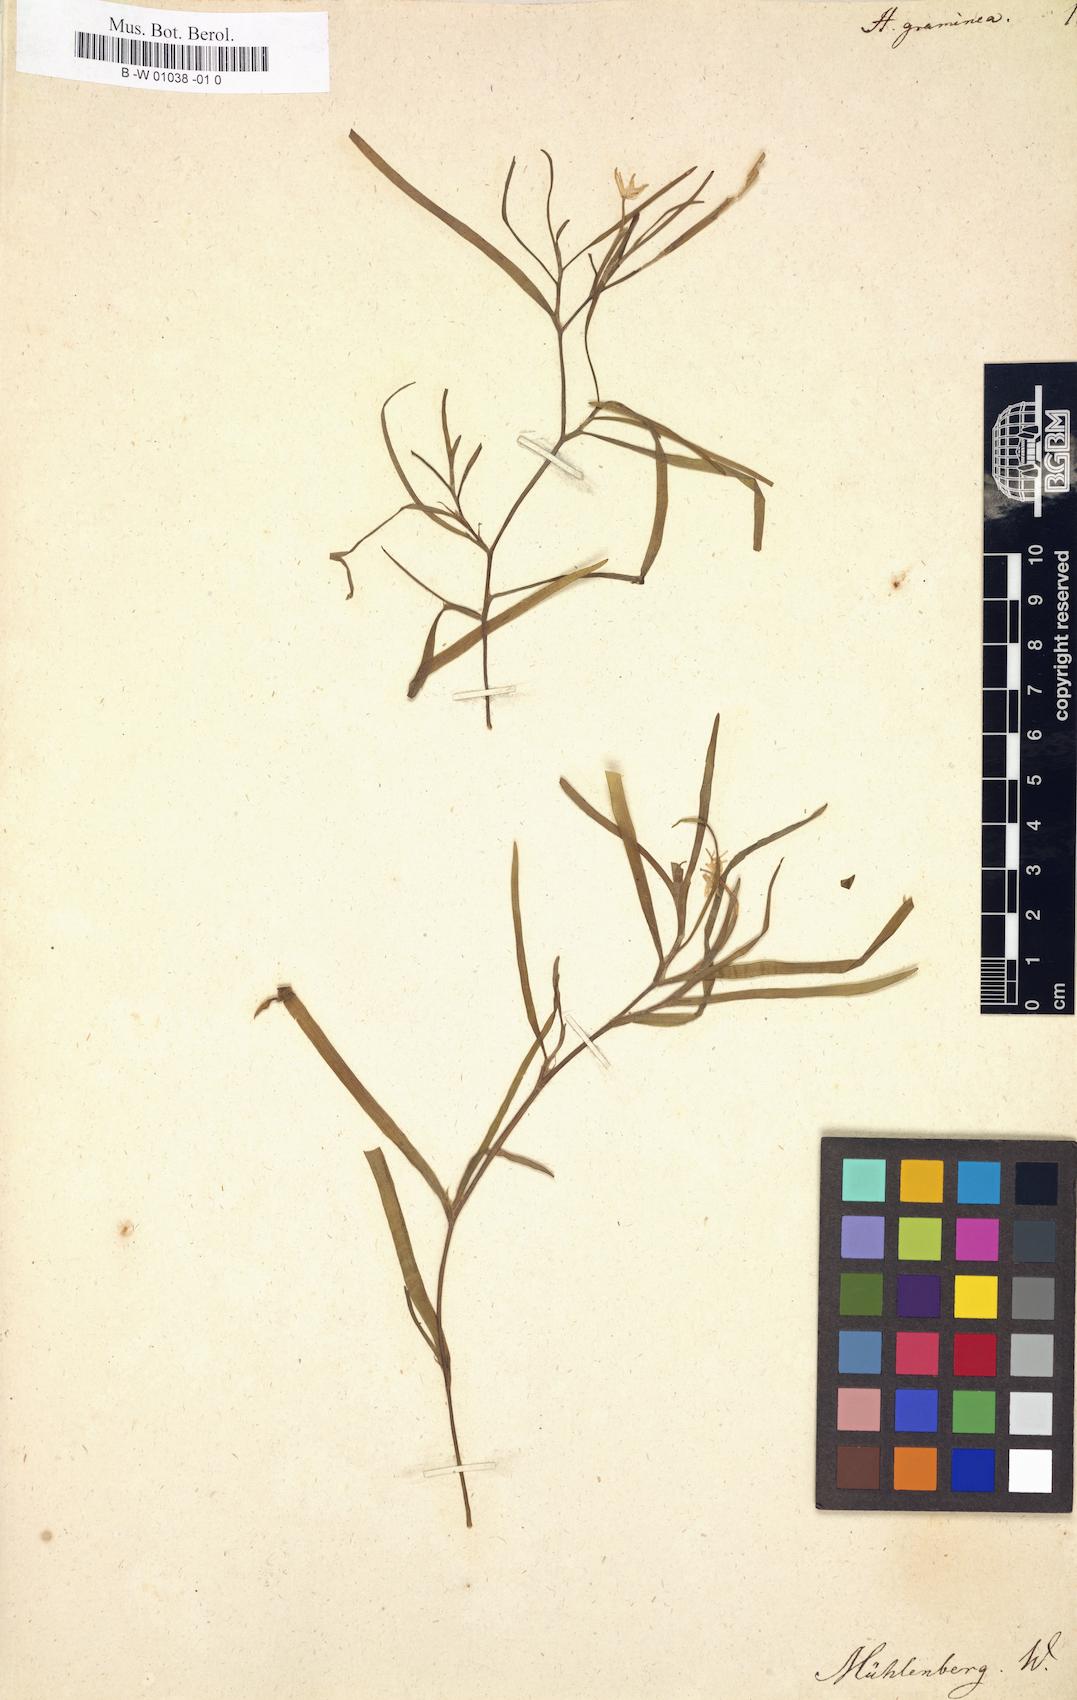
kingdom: Plantae
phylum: Tracheophyta
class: Liliopsida
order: Commelinales
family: Pontederiaceae
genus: Heteranthera
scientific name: Heteranthera dubia
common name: Grass-leaved mud plantain
